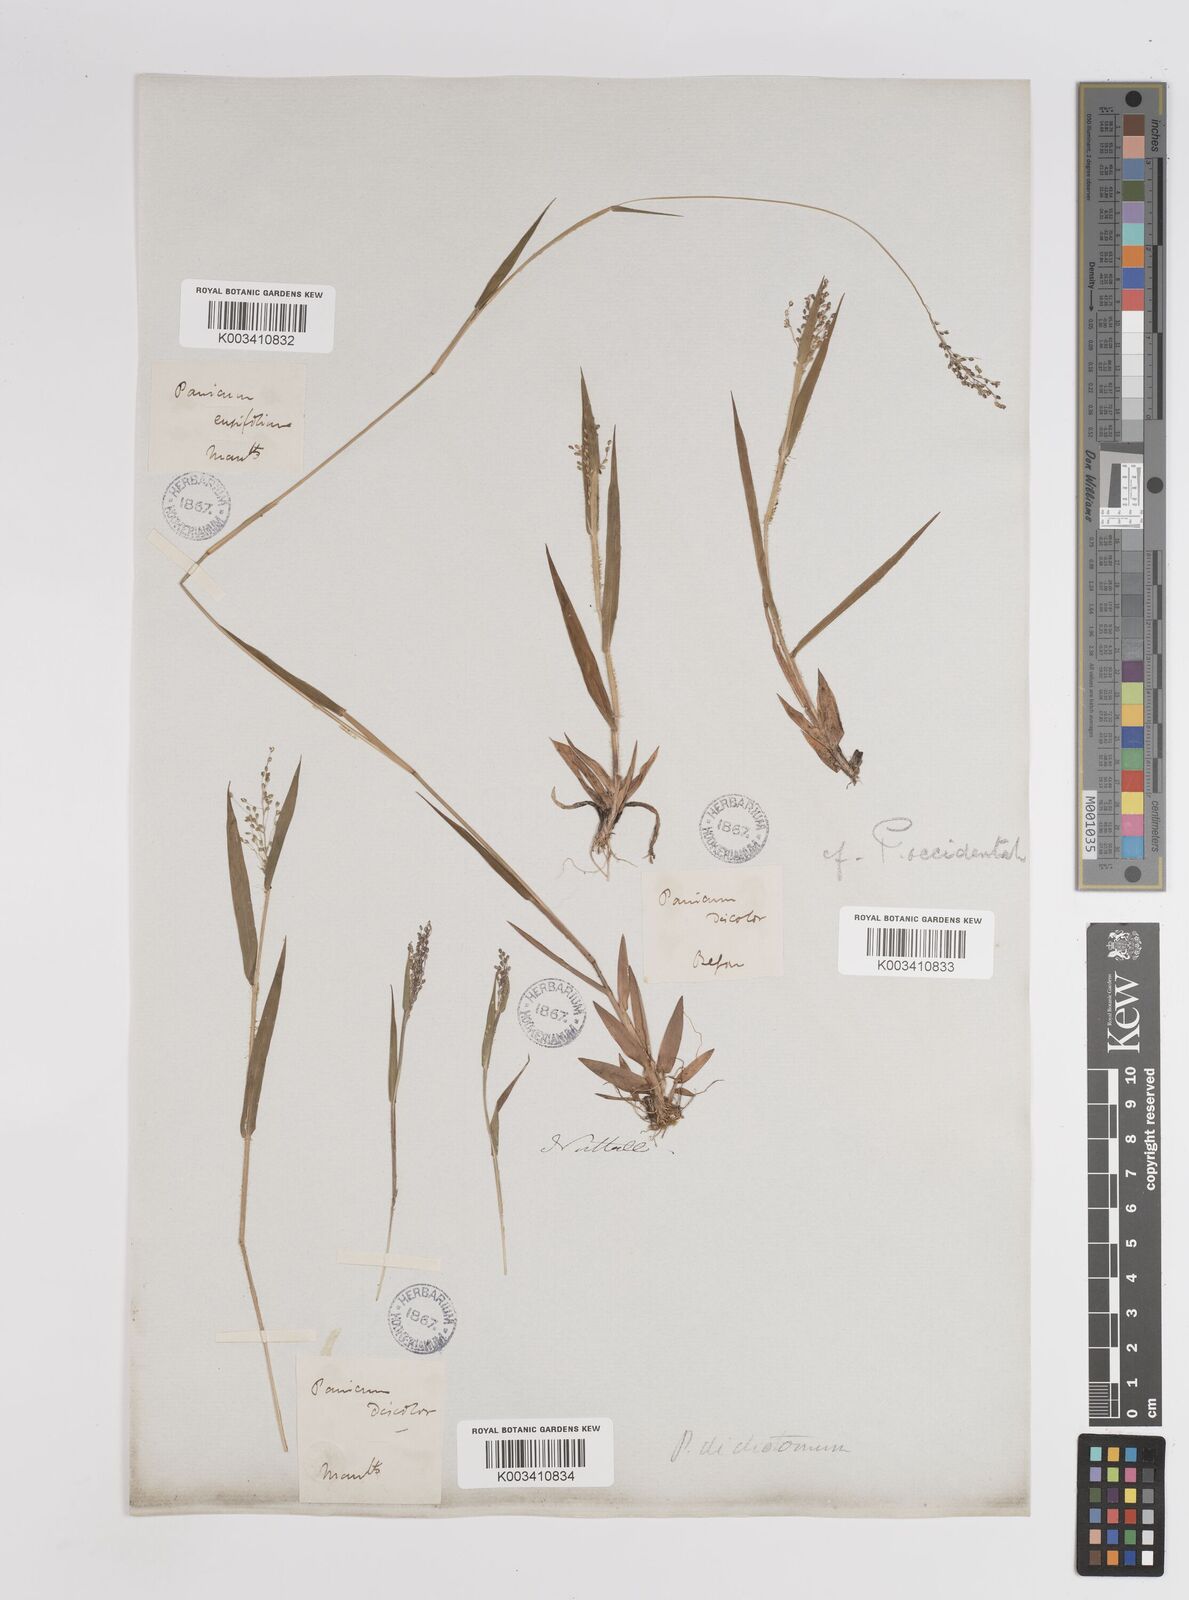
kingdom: Plantae
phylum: Tracheophyta
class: Liliopsida
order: Poales
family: Poaceae
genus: Dichanthelium
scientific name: Dichanthelium implicatum
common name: Slender-stemmed panicgrass
